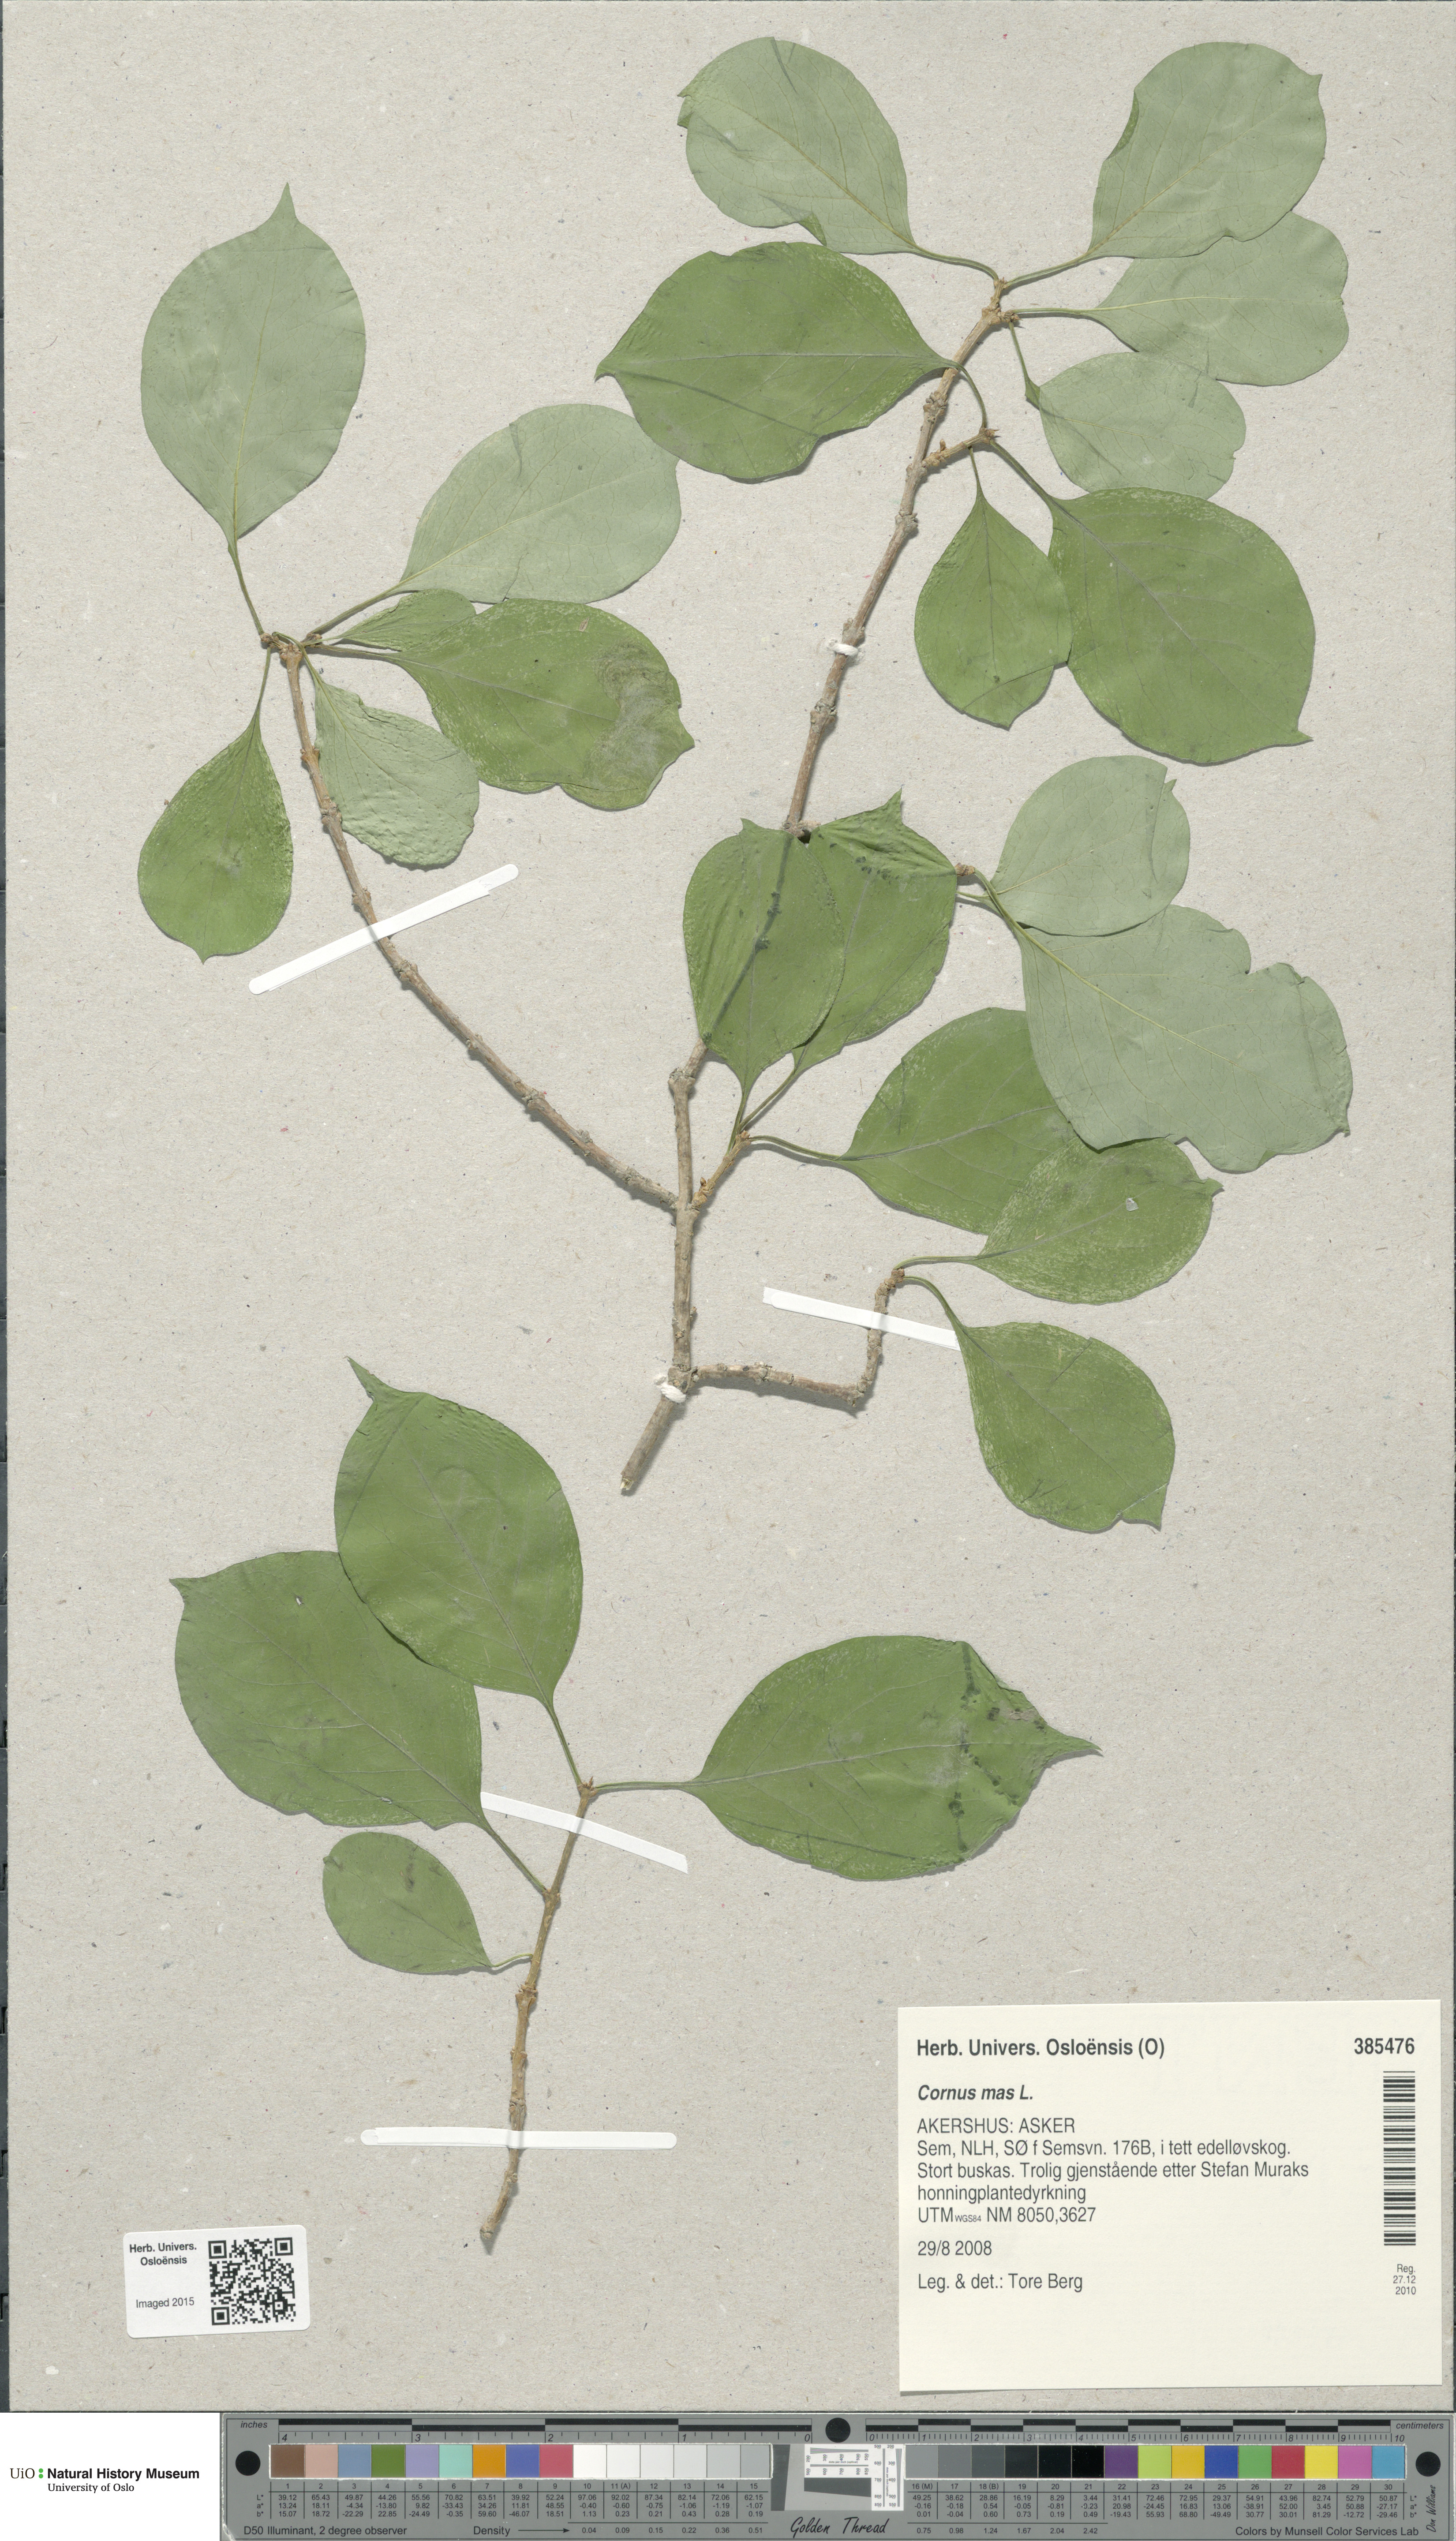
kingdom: Plantae
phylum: Tracheophyta
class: Magnoliopsida
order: Cornales
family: Cornaceae
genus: Cornus
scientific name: Cornus mas
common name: Cornelian-cherry
